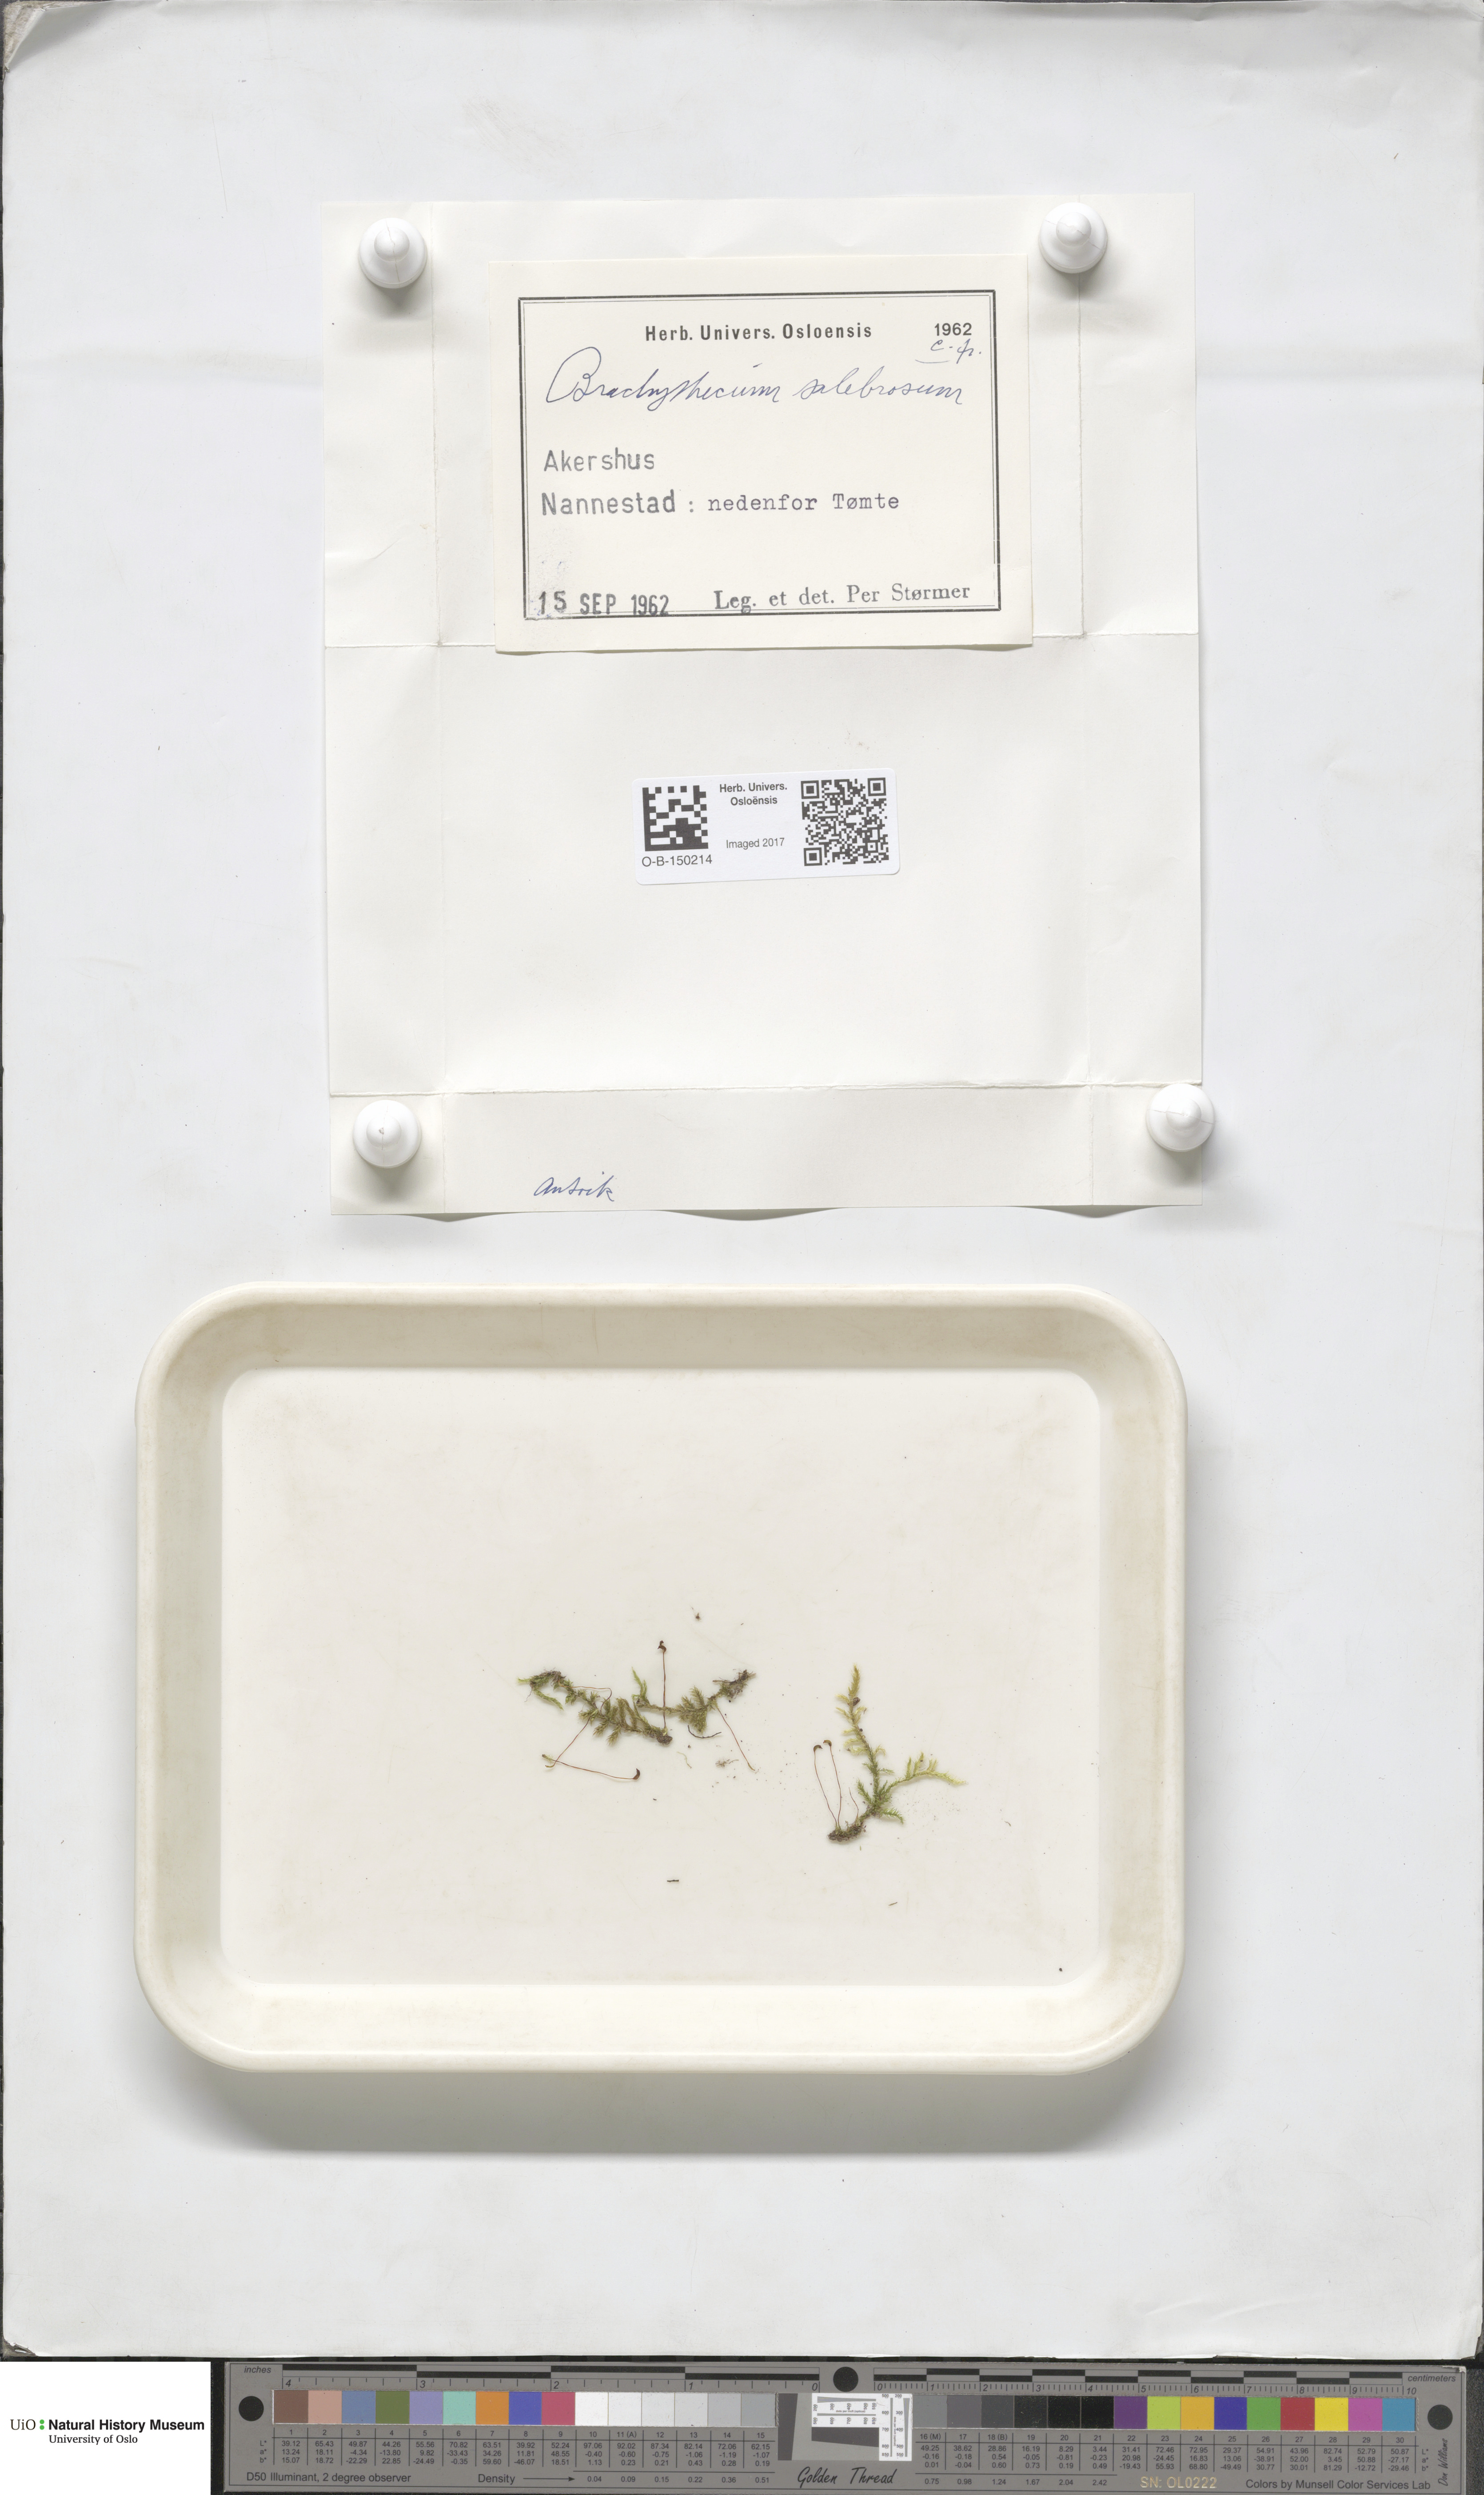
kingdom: Plantae
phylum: Bryophyta
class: Bryopsida
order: Hypnales
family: Brachytheciaceae
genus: Brachythecium
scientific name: Brachythecium salebrosum
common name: Smooth-stalk feather-moss
